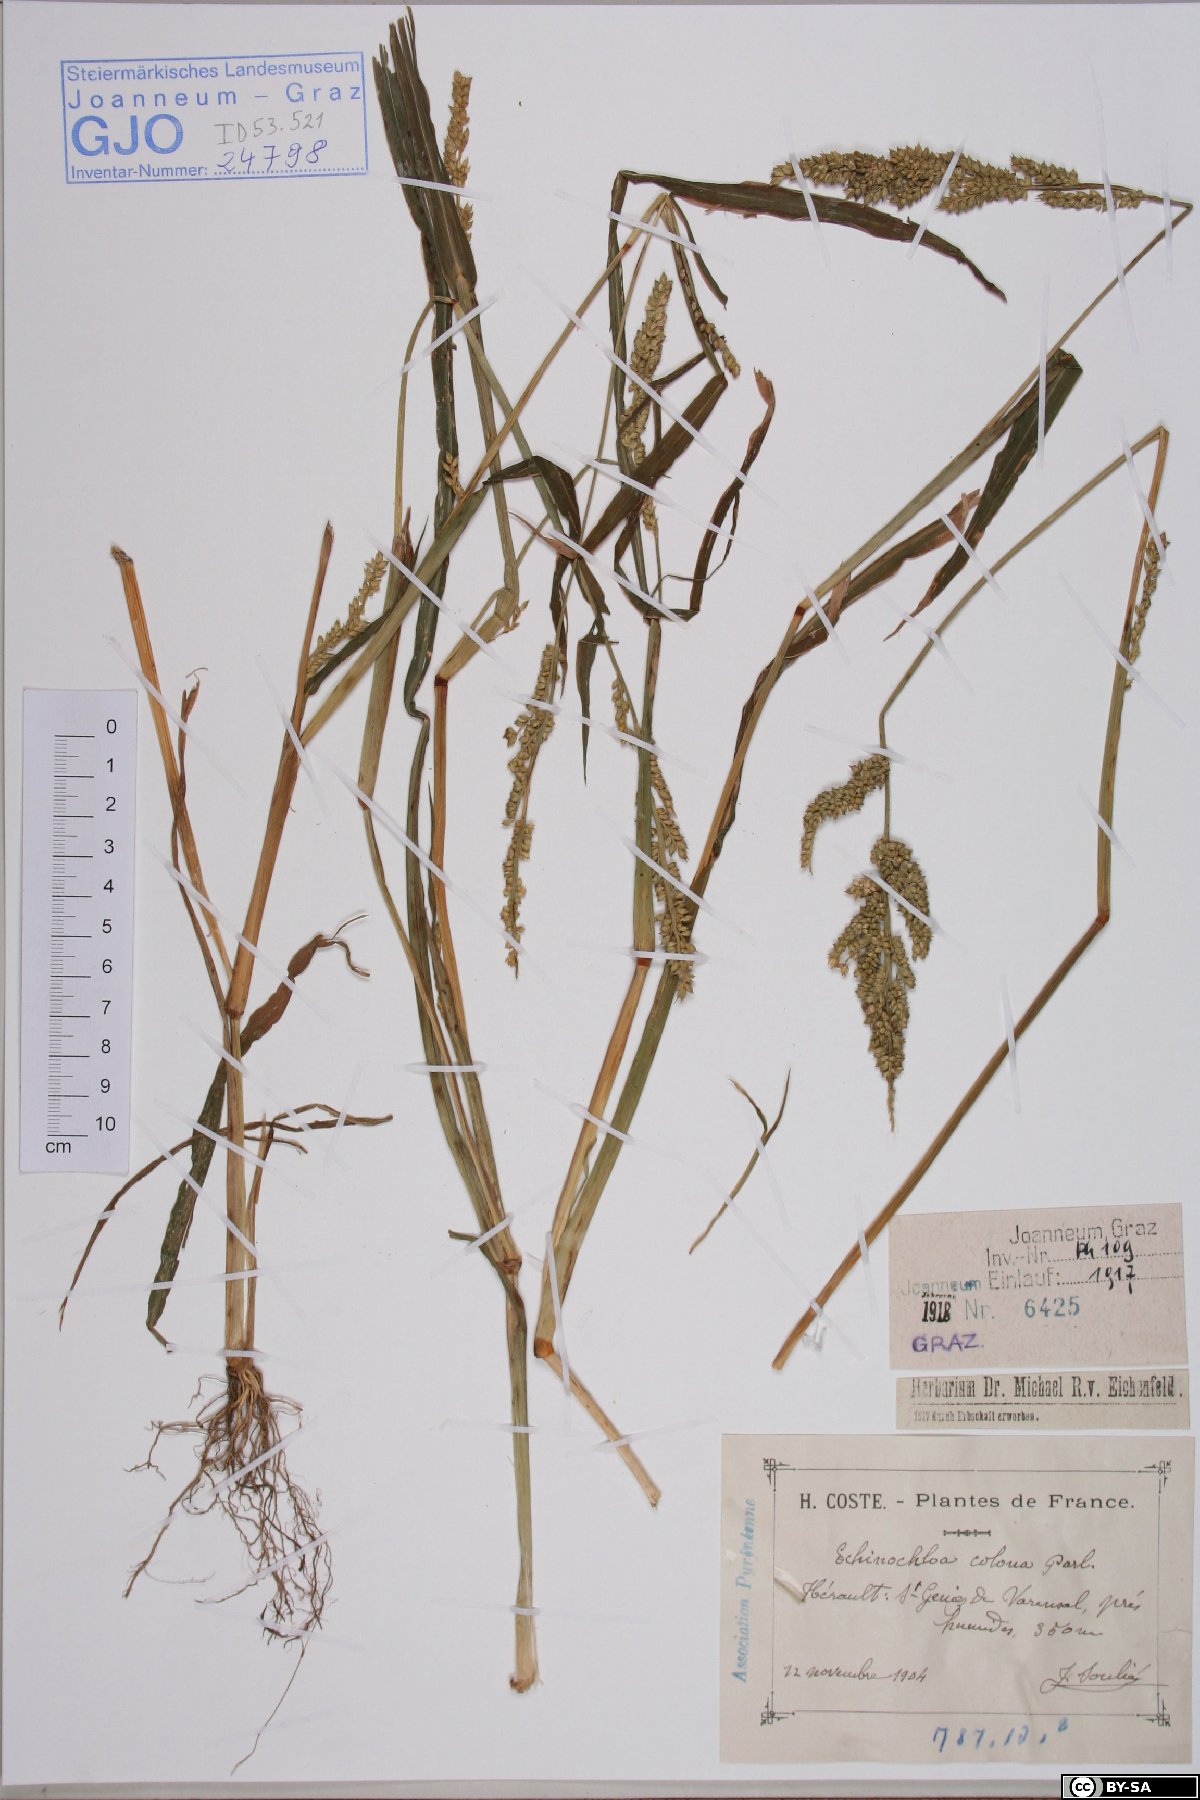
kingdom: Plantae
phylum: Tracheophyta
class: Liliopsida
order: Poales
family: Poaceae
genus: Echinochloa
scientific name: Echinochloa colonum
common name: Jungle rice
